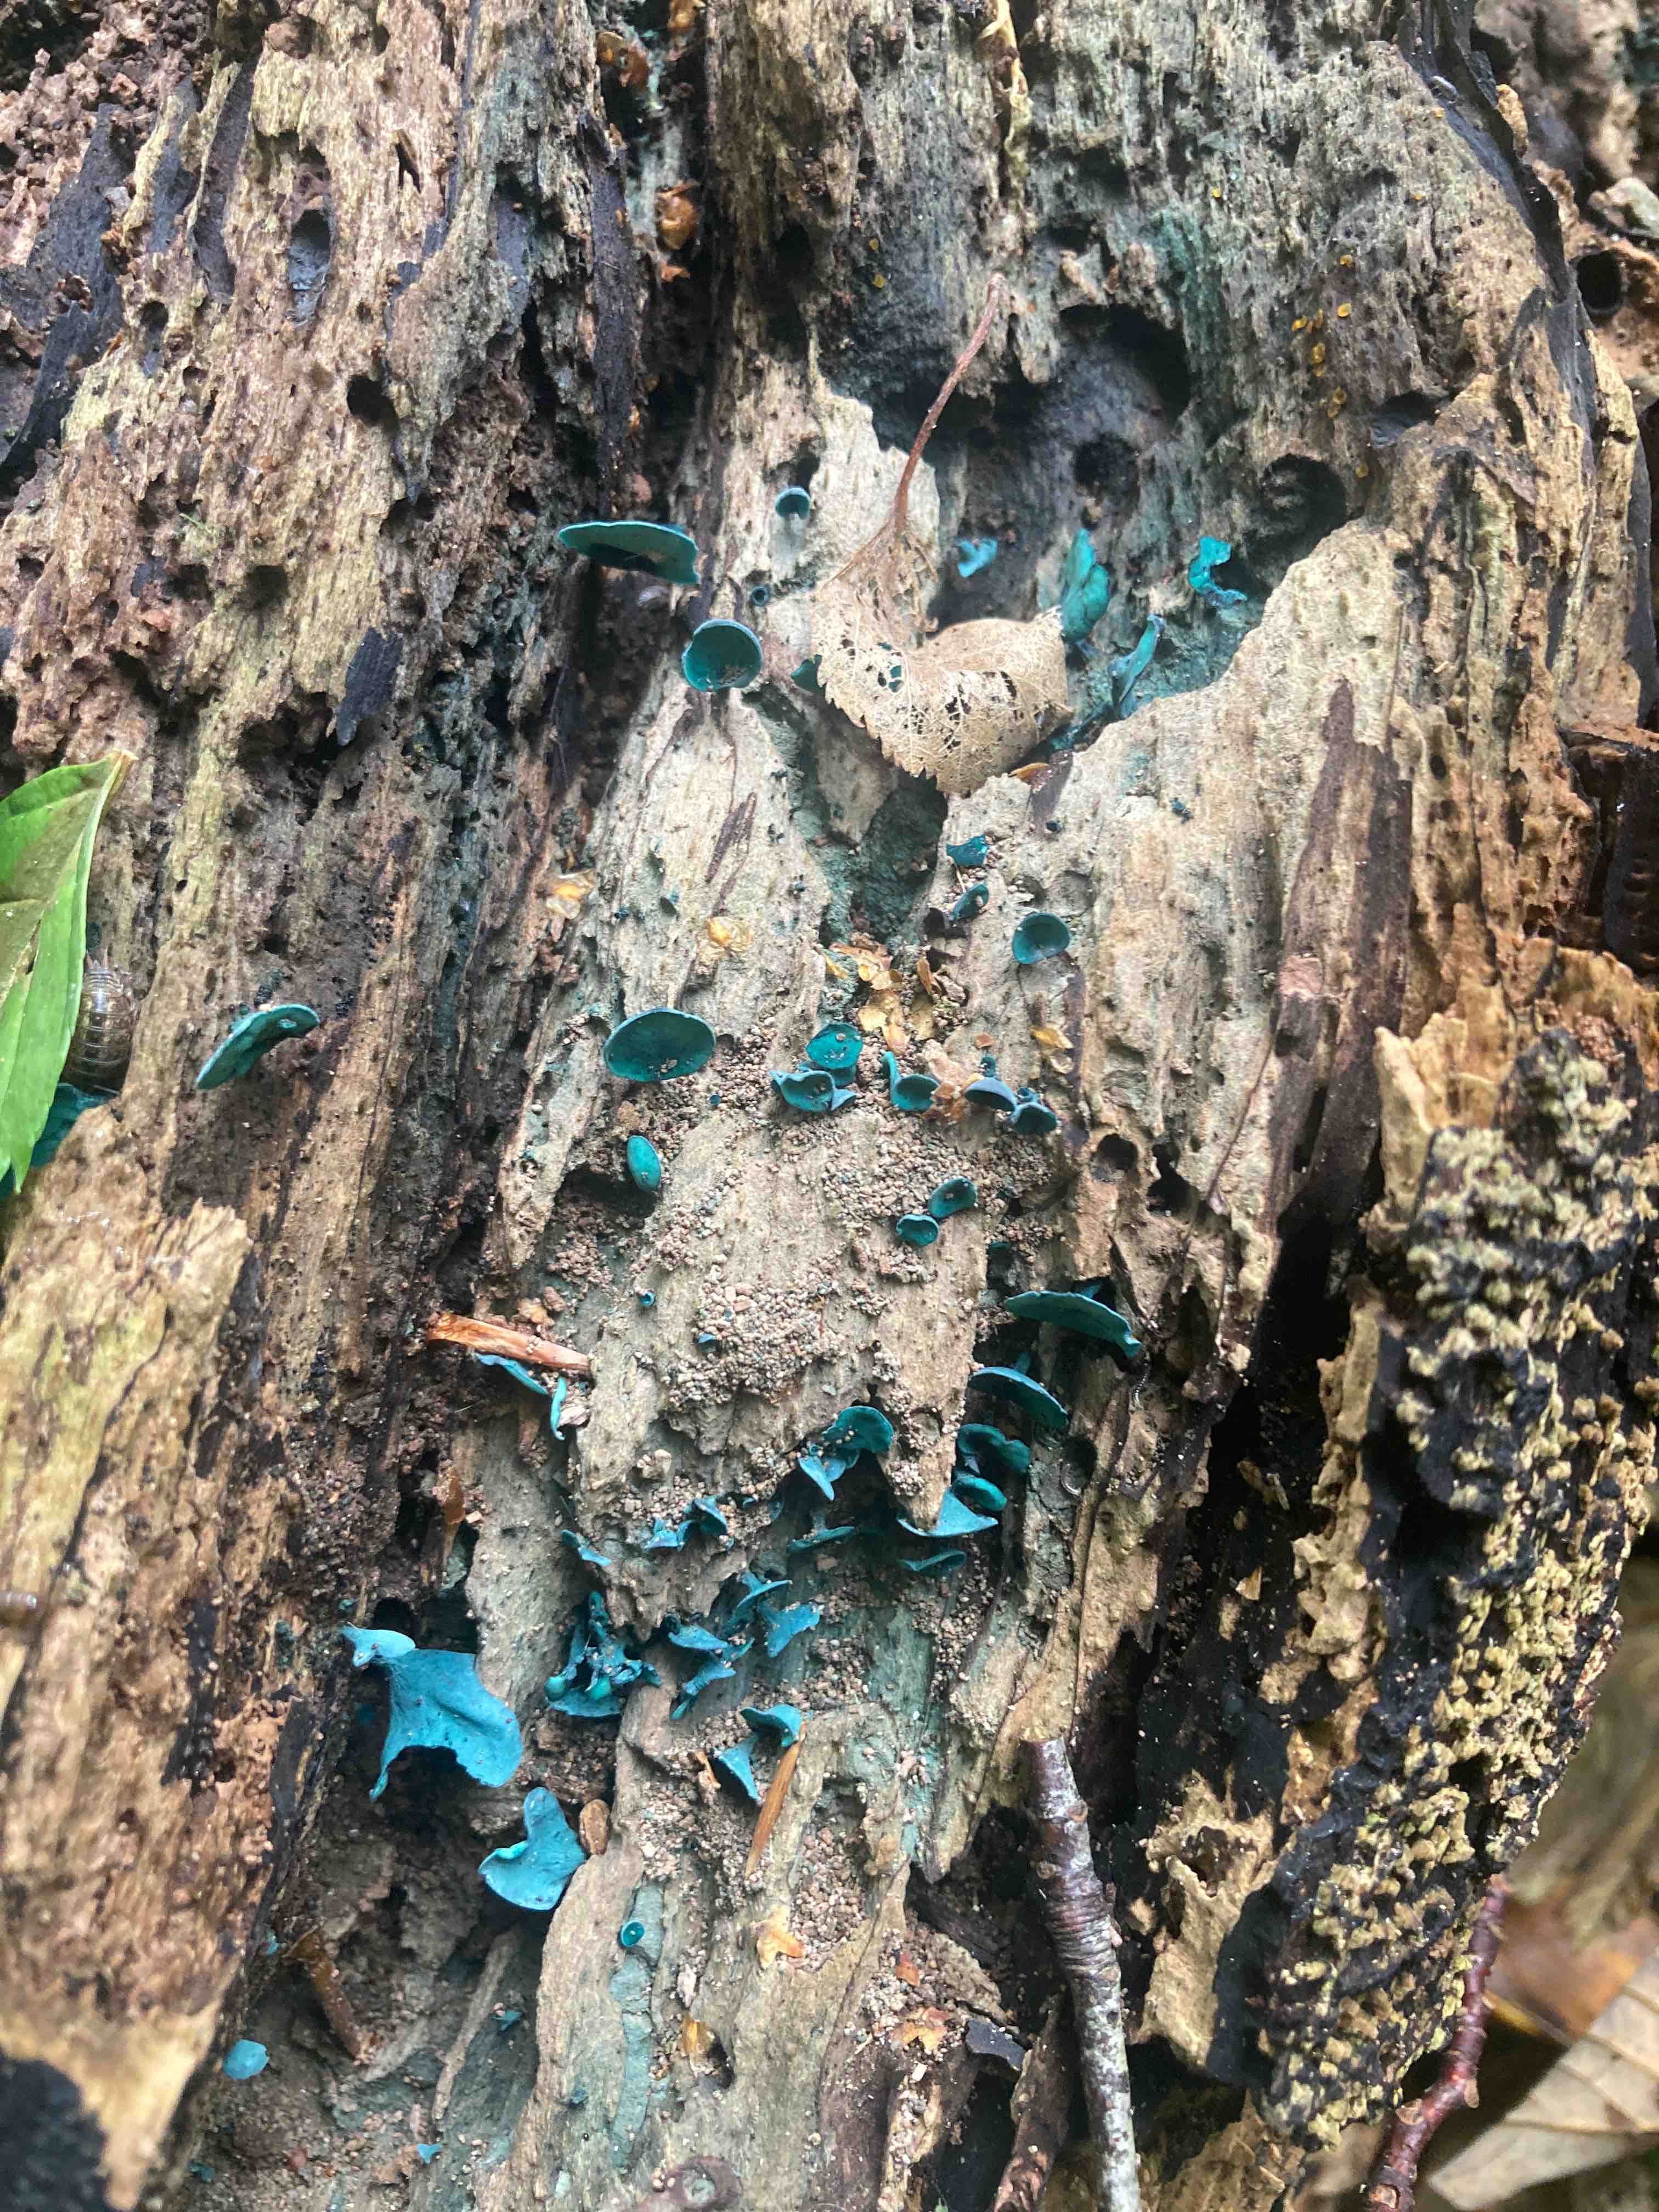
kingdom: Fungi
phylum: Ascomycota
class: Leotiomycetes
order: Helotiales
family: Chlorociboriaceae
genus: Chlorociboria
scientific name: Chlorociboria aeruginascens
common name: almindelig grønskive
